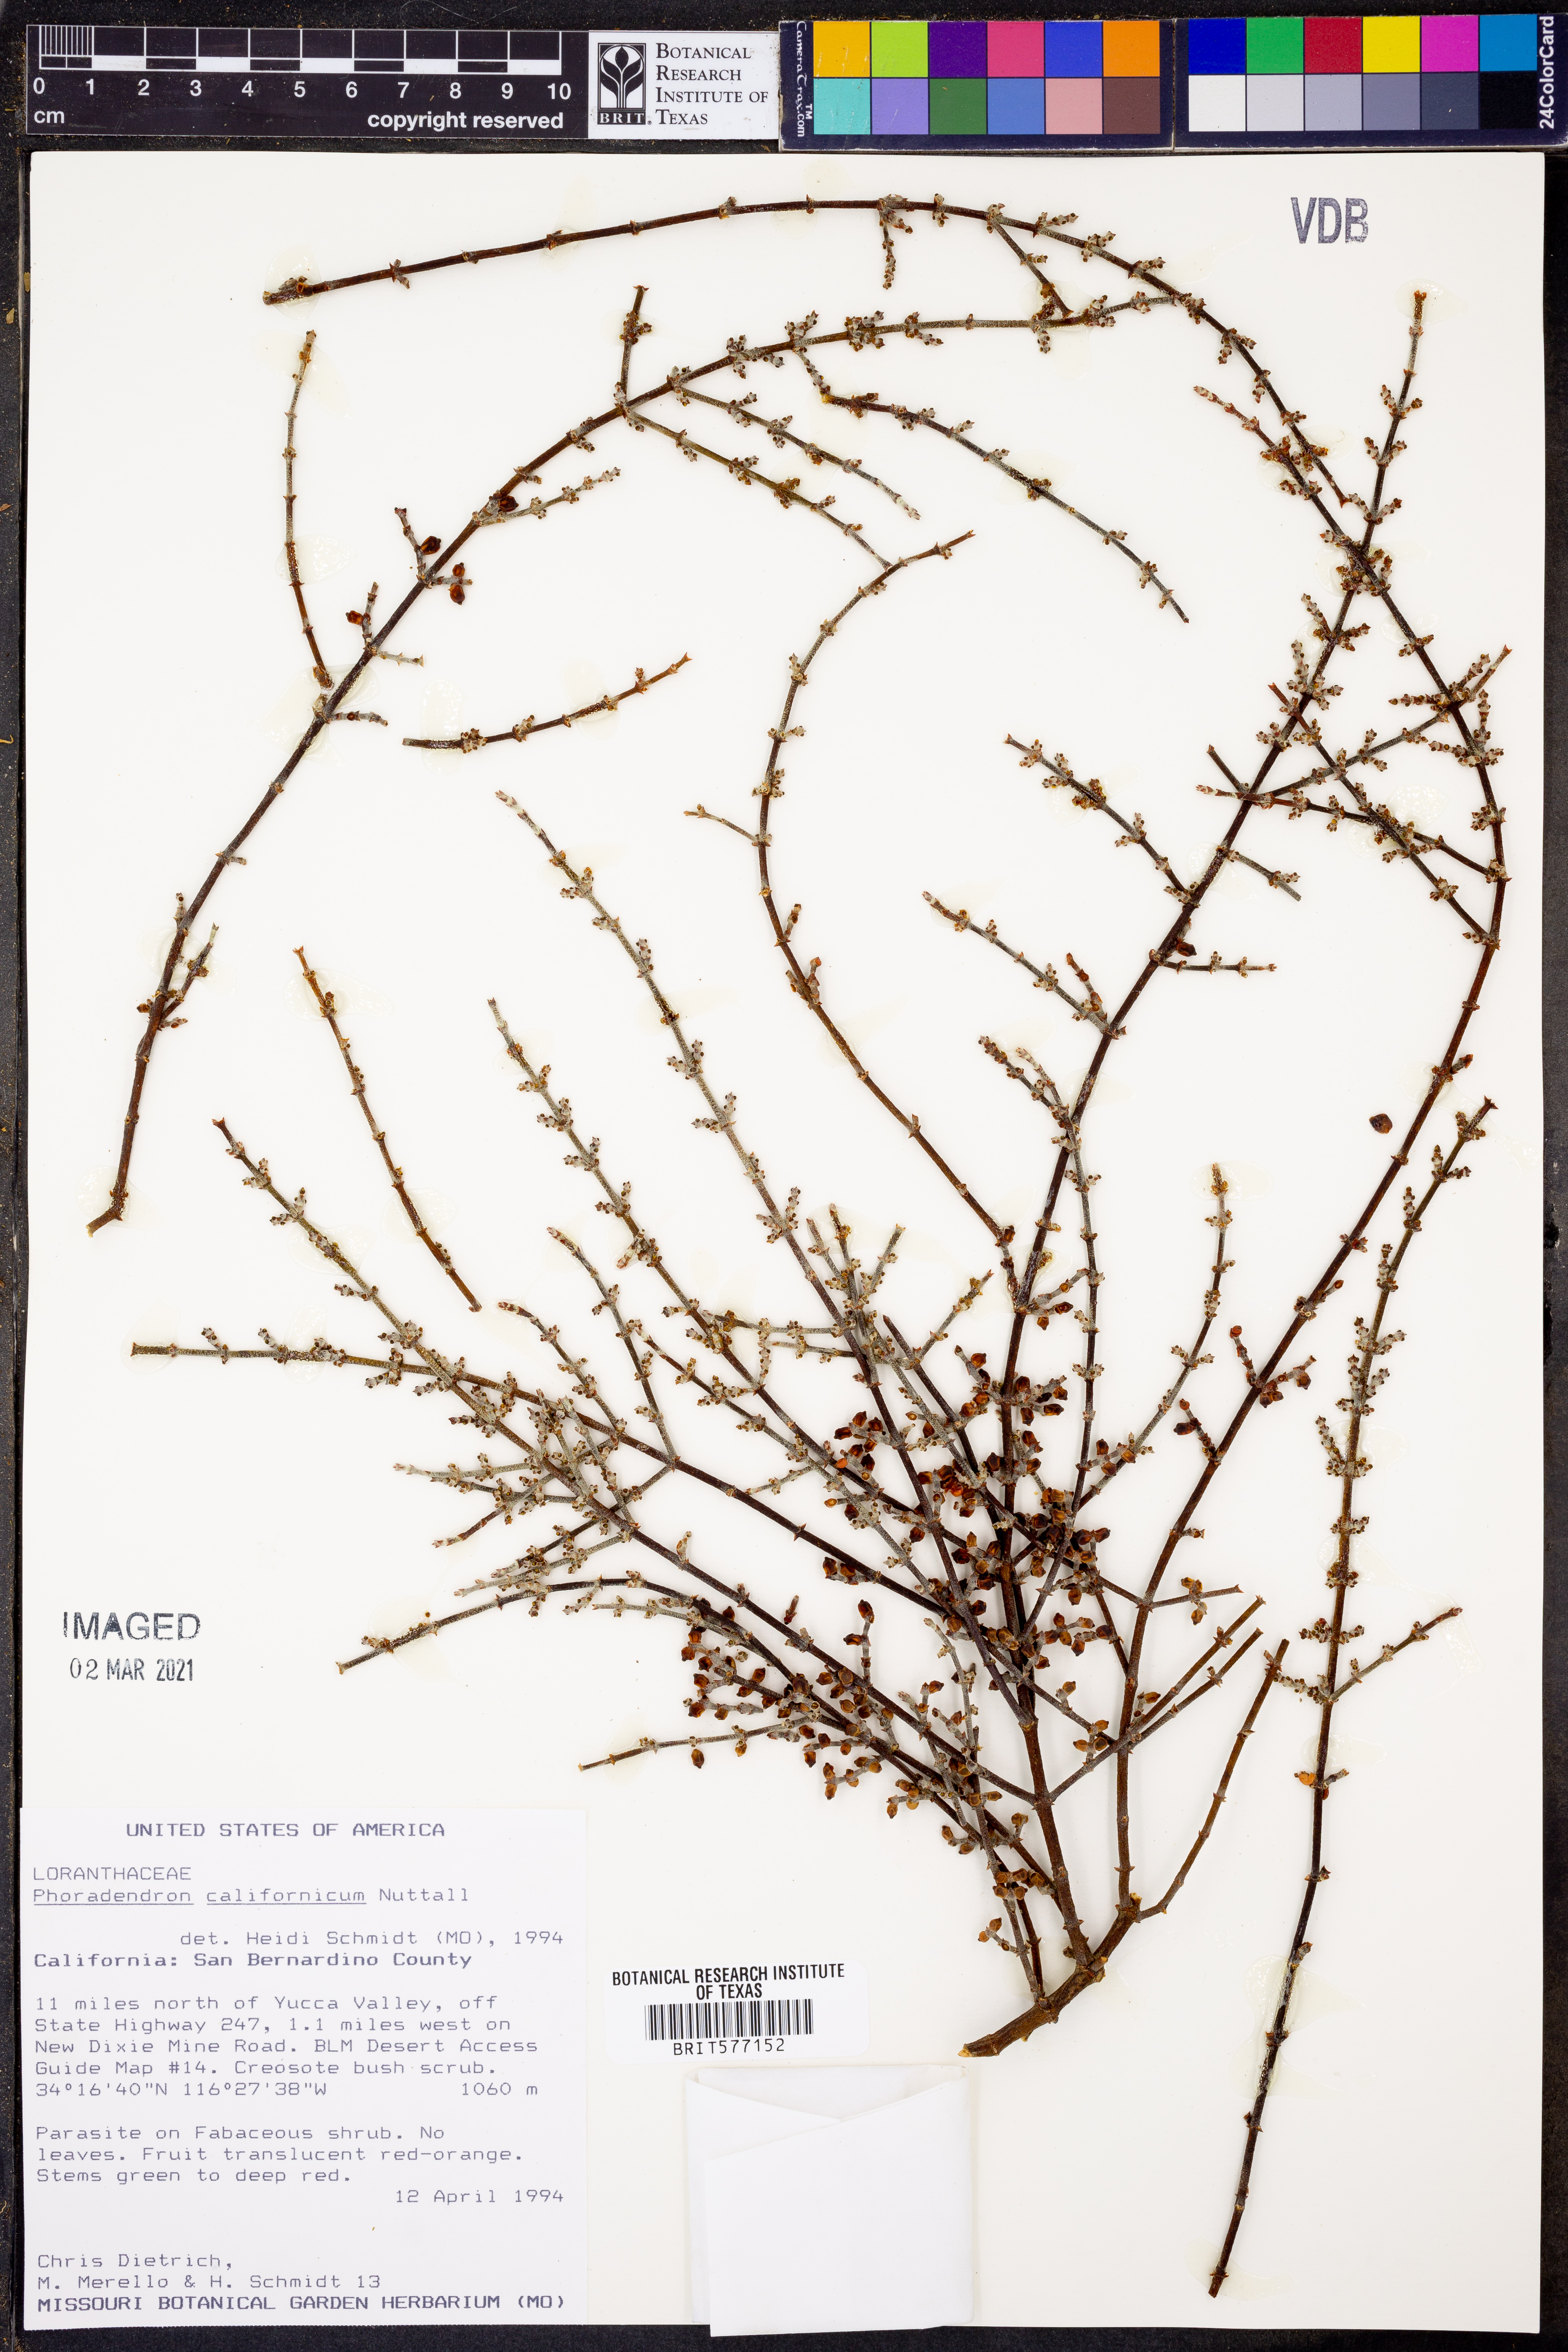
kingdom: Plantae
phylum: Tracheophyta
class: Magnoliopsida
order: Santalales
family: Viscaceae
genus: Phoradendron
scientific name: Phoradendron californicum
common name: Acacia mistletoe
